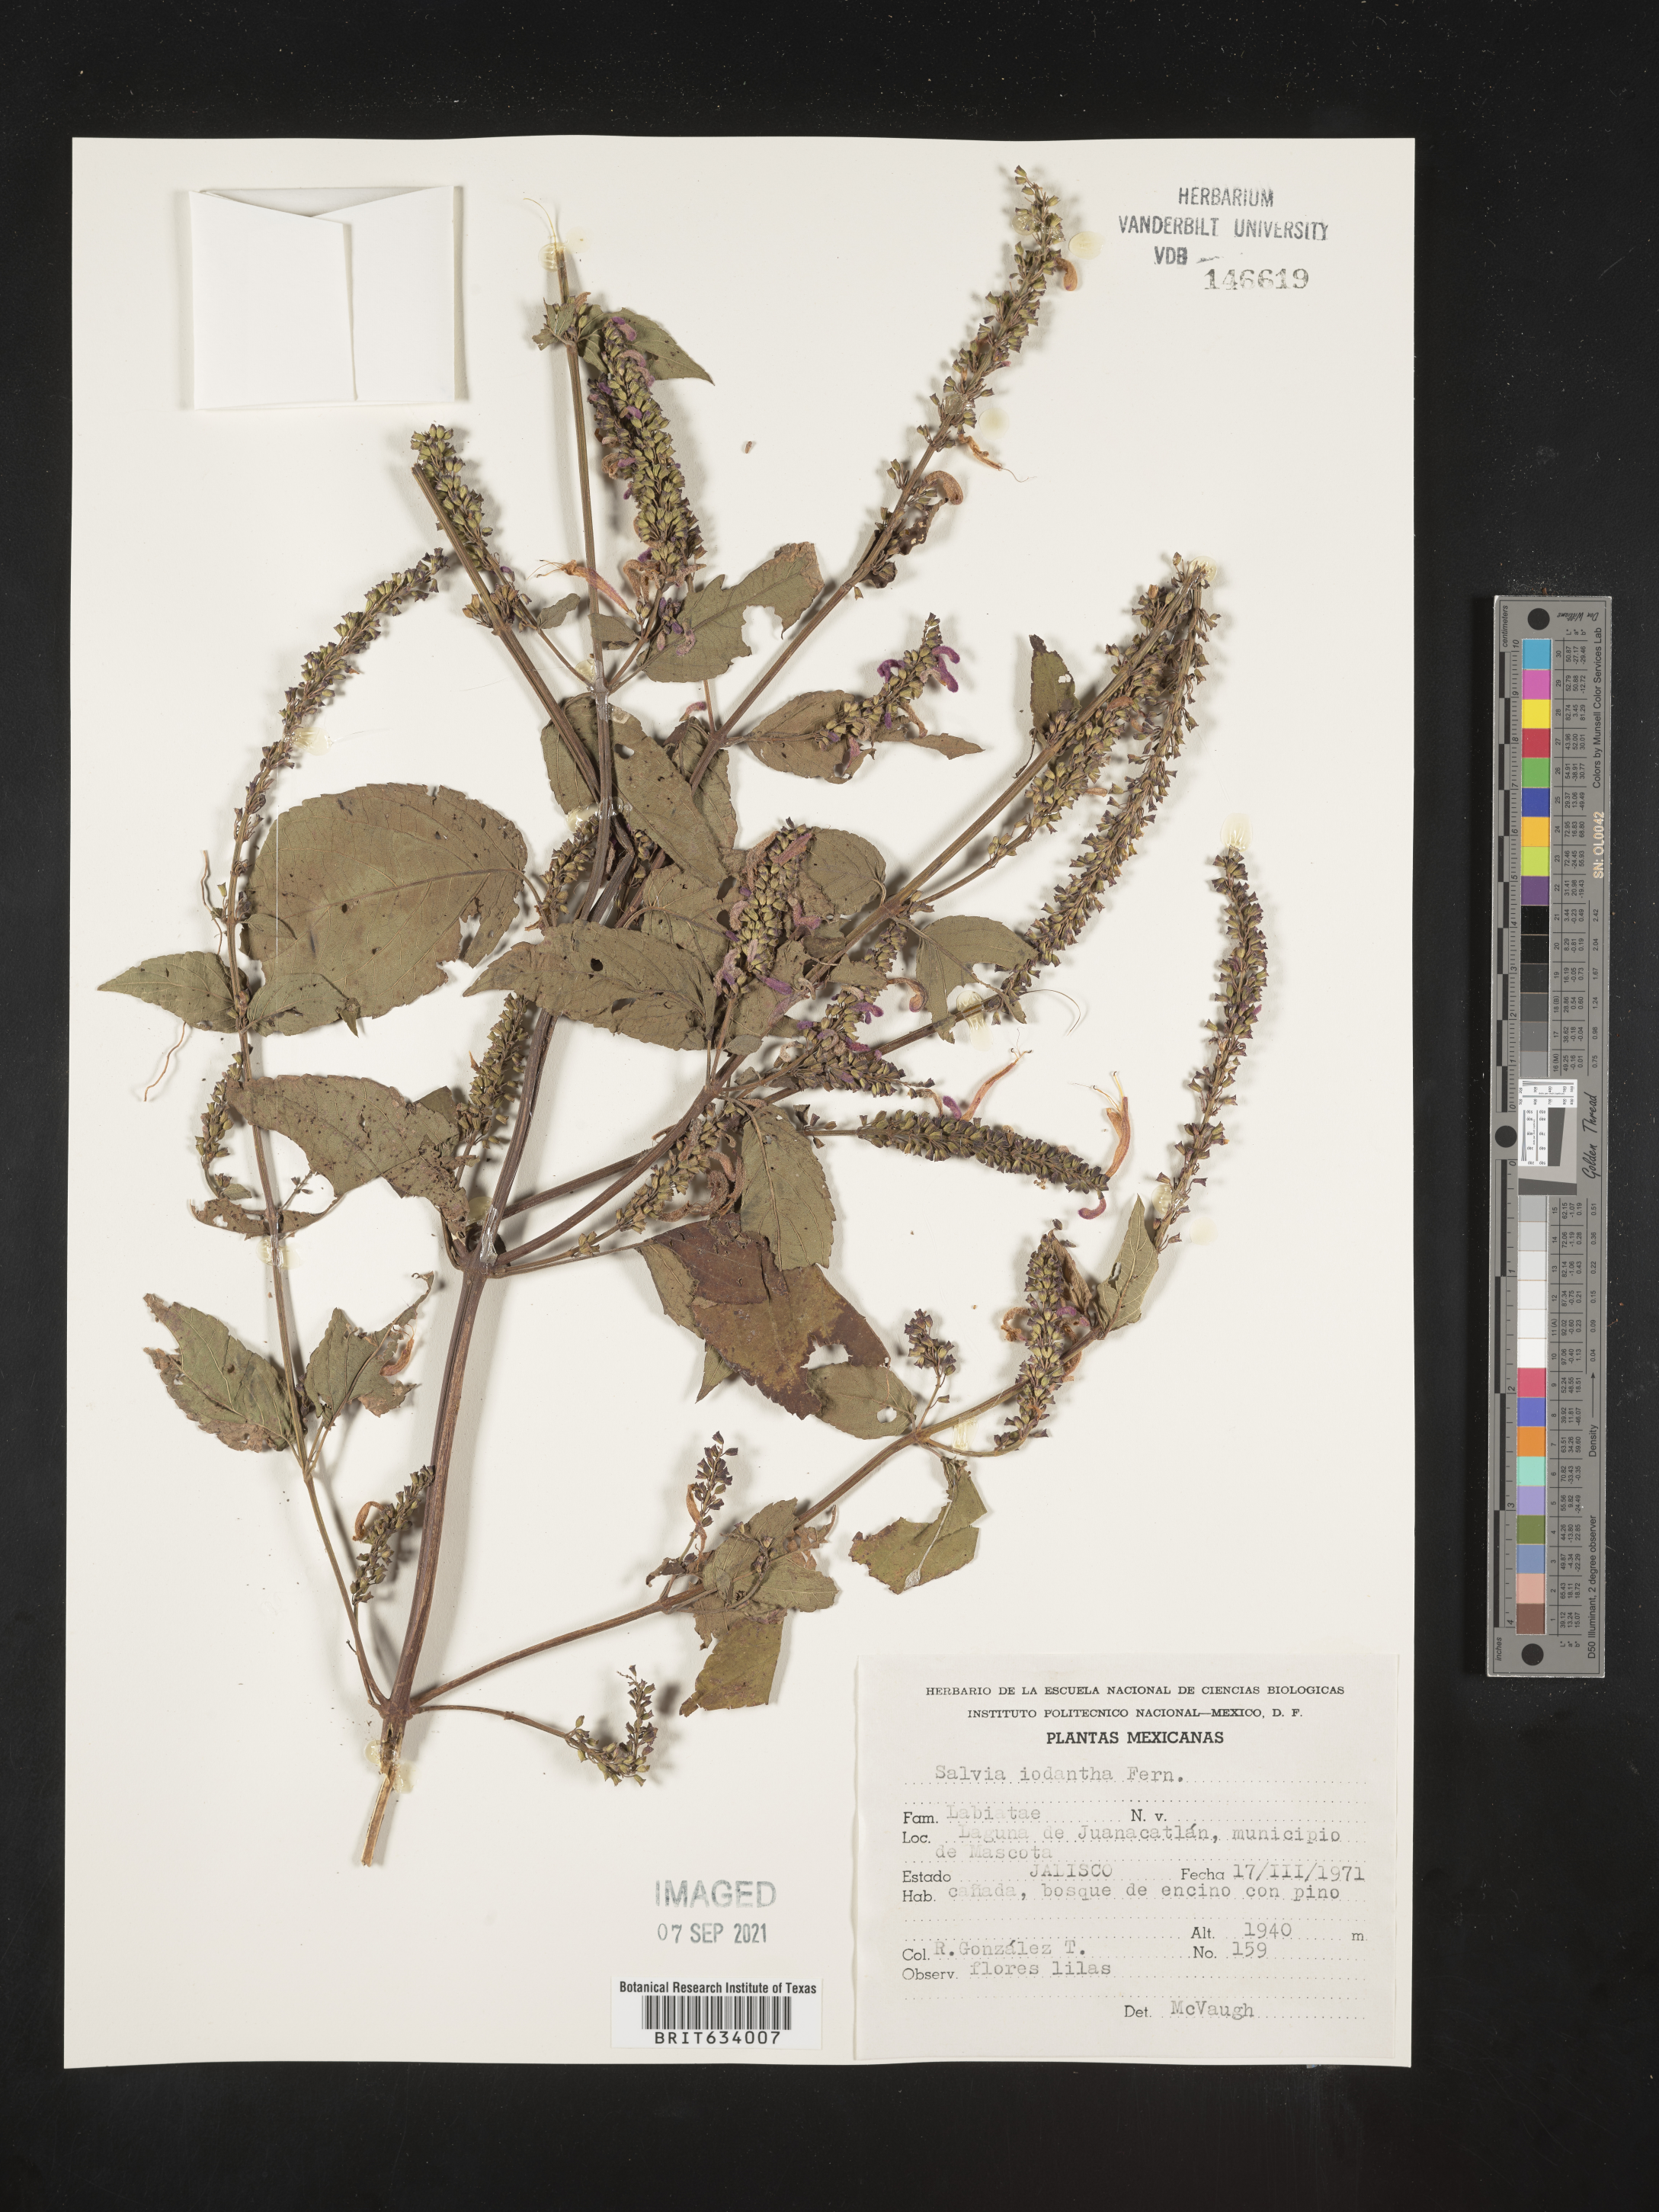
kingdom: Plantae
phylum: Tracheophyta
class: Magnoliopsida
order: Lamiales
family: Lamiaceae
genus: Salvia
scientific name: Salvia
